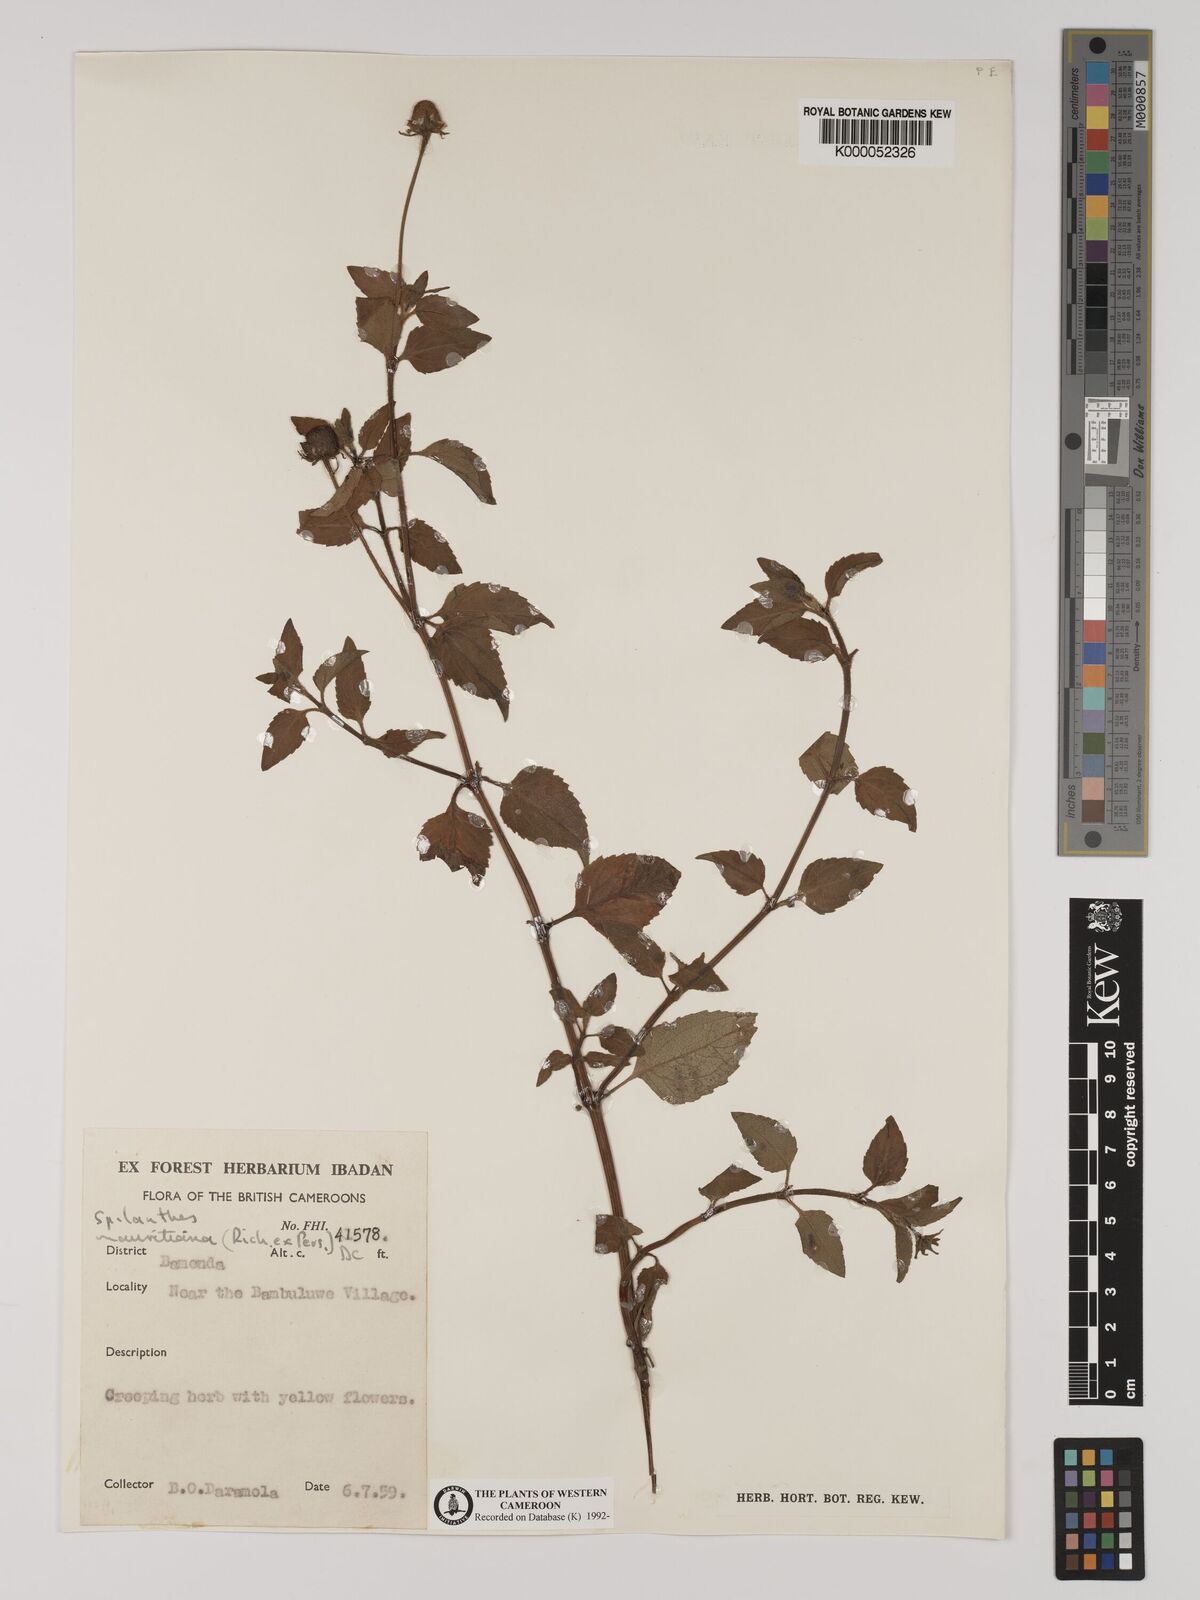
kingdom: Plantae
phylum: Tracheophyta
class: Magnoliopsida
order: Asterales
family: Asteraceae
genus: Acmella
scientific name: Acmella caulirhiza
